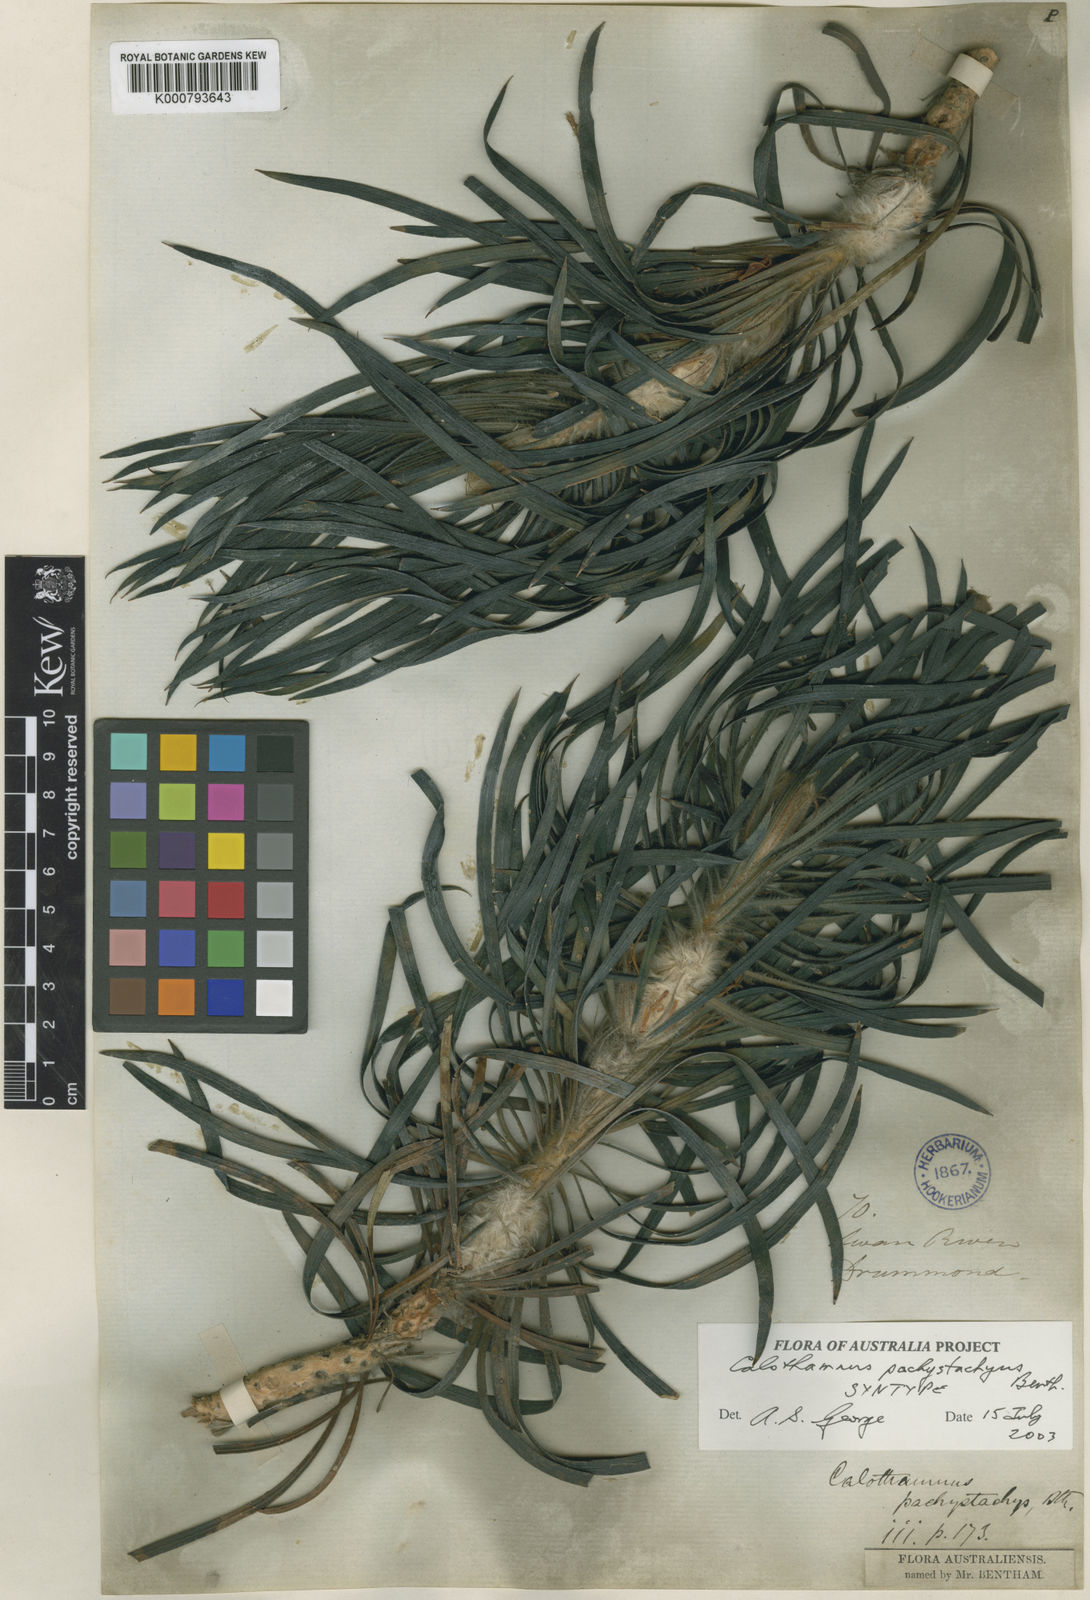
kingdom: Plantae
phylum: Tracheophyta
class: Magnoliopsida
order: Myrtales
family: Myrtaceae
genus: Melaleuca
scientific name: Melaleuca pachystachya
